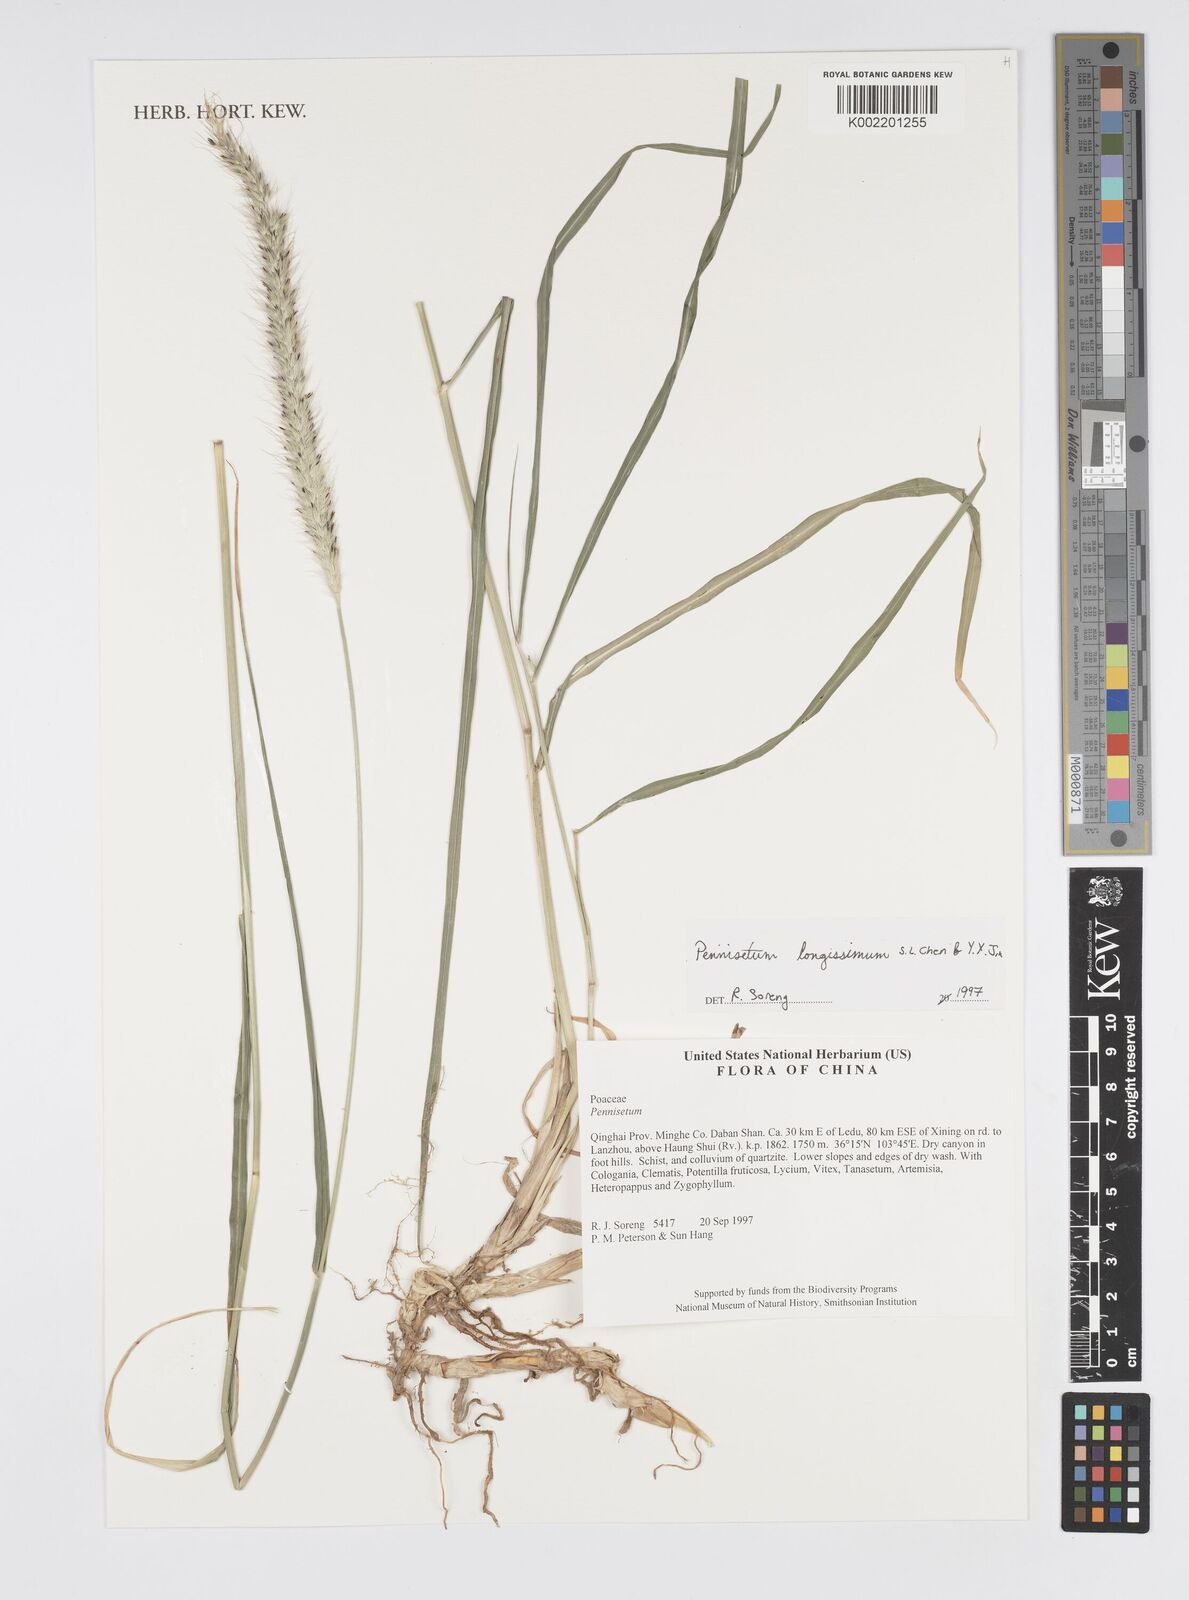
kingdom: Plantae
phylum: Tracheophyta
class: Liliopsida
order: Poales
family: Poaceae
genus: Cenchrus
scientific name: Cenchrus longissimus
